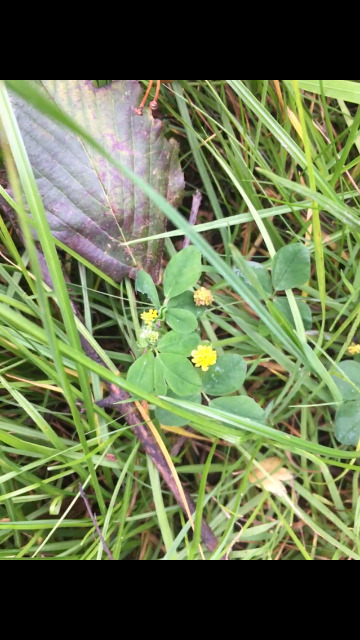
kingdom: Plantae
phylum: Tracheophyta
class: Magnoliopsida
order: Fabales
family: Fabaceae
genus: Medicago
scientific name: Medicago lupulina
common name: Humle-sneglebælg
